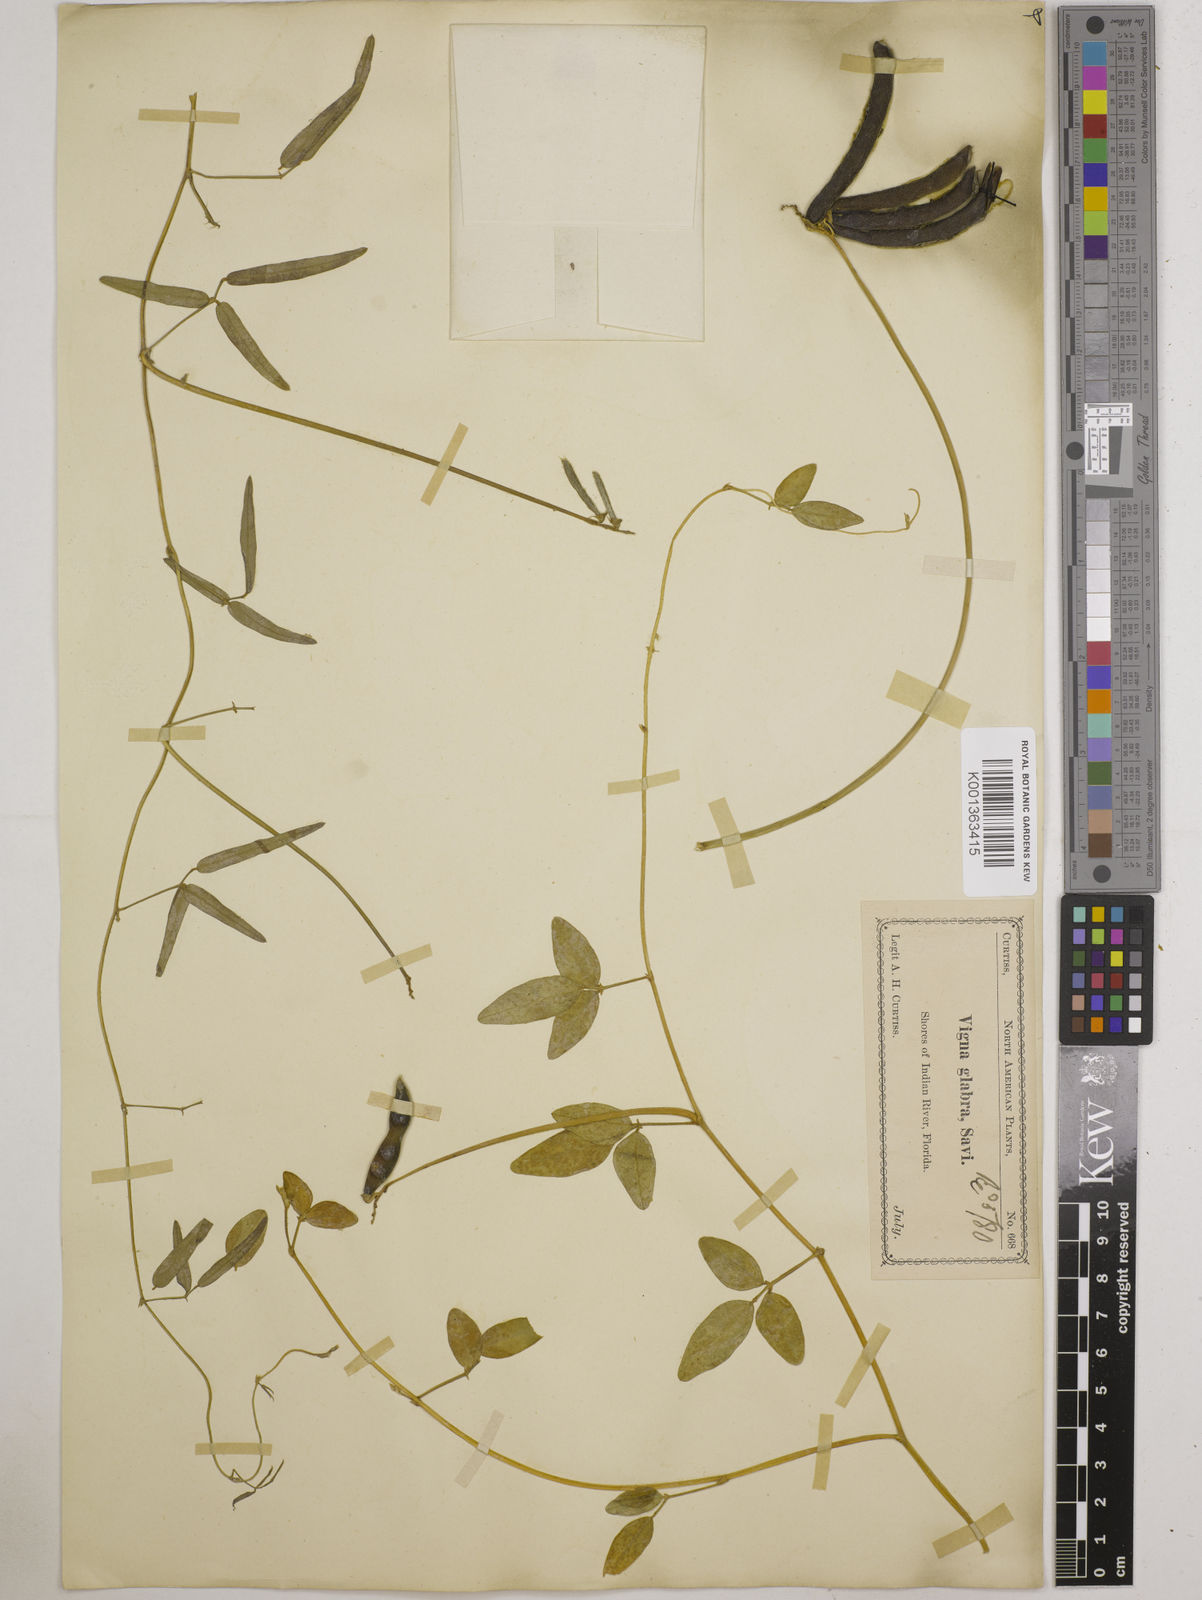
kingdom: Plantae
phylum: Tracheophyta
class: Magnoliopsida
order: Fabales
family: Fabaceae
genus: Vigna
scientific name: Vigna luteola
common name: Hairypod cowpea
